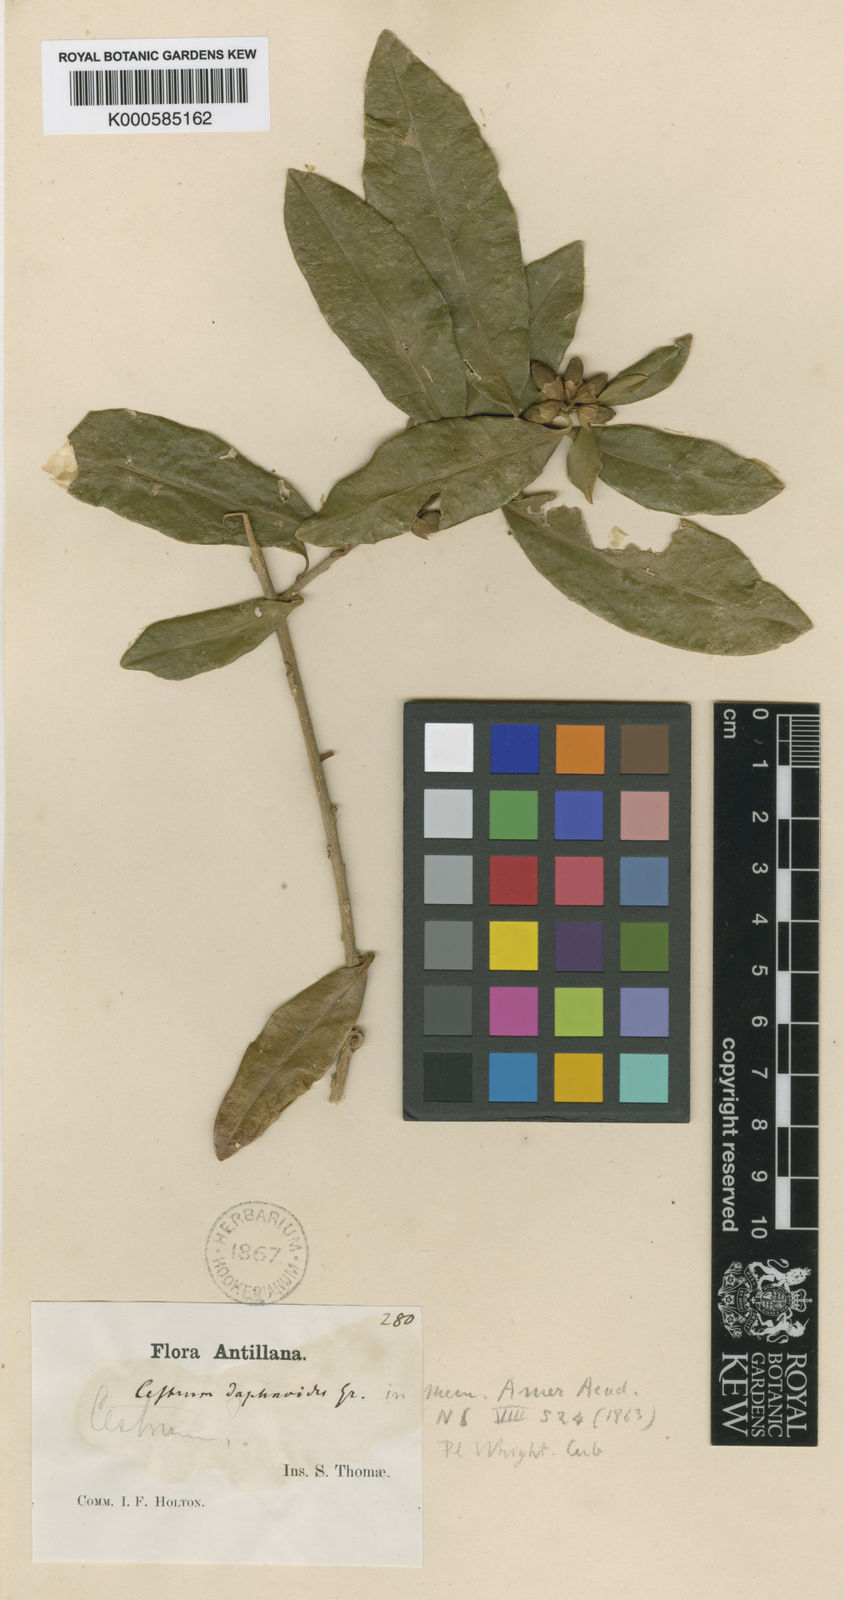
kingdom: Plantae
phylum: Tracheophyta
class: Magnoliopsida
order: Solanales
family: Solanaceae
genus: Cestrum
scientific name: Cestrum
